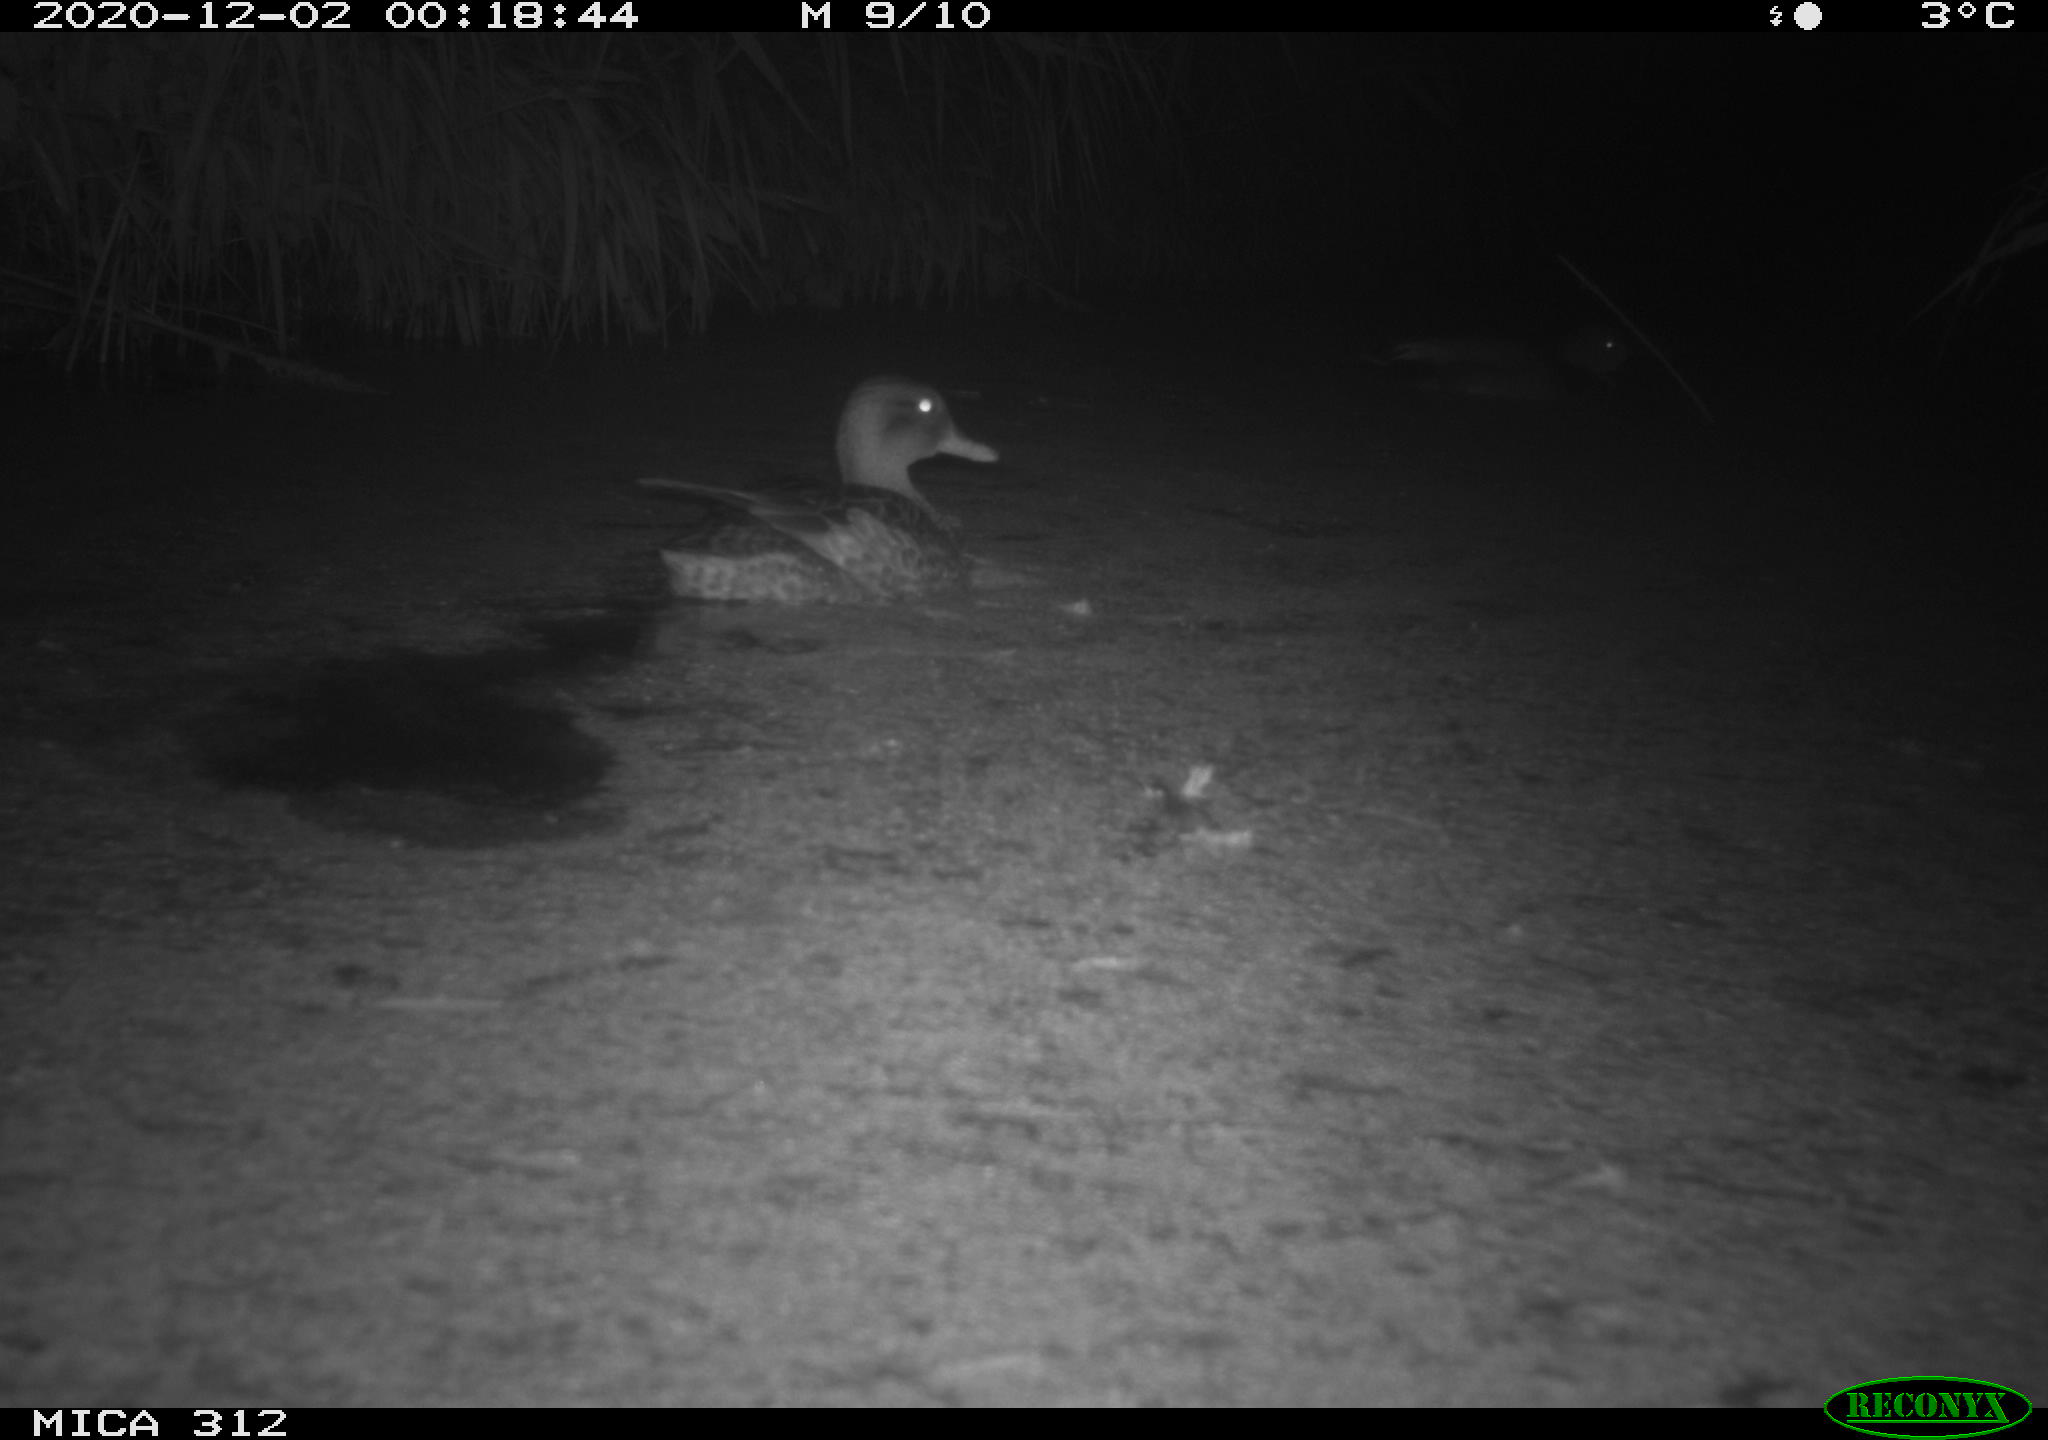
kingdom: Animalia
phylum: Chordata
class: Aves
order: Anseriformes
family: Anatidae
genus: Anas
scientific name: Anas platyrhynchos
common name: Mallard
